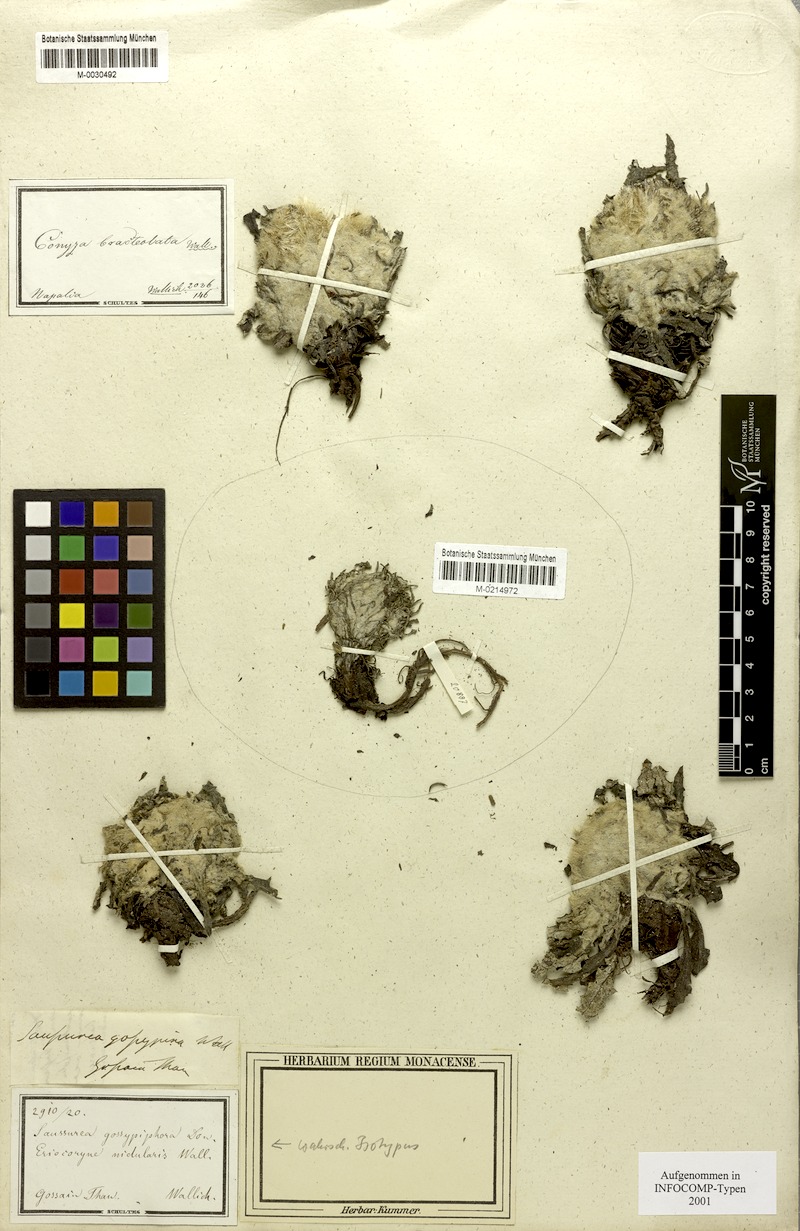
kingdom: Plantae
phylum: Tracheophyta
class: Magnoliopsida
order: Asterales
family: Asteraceae
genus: Saussurea
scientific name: Saussurea gossipiphora
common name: Saussurea
